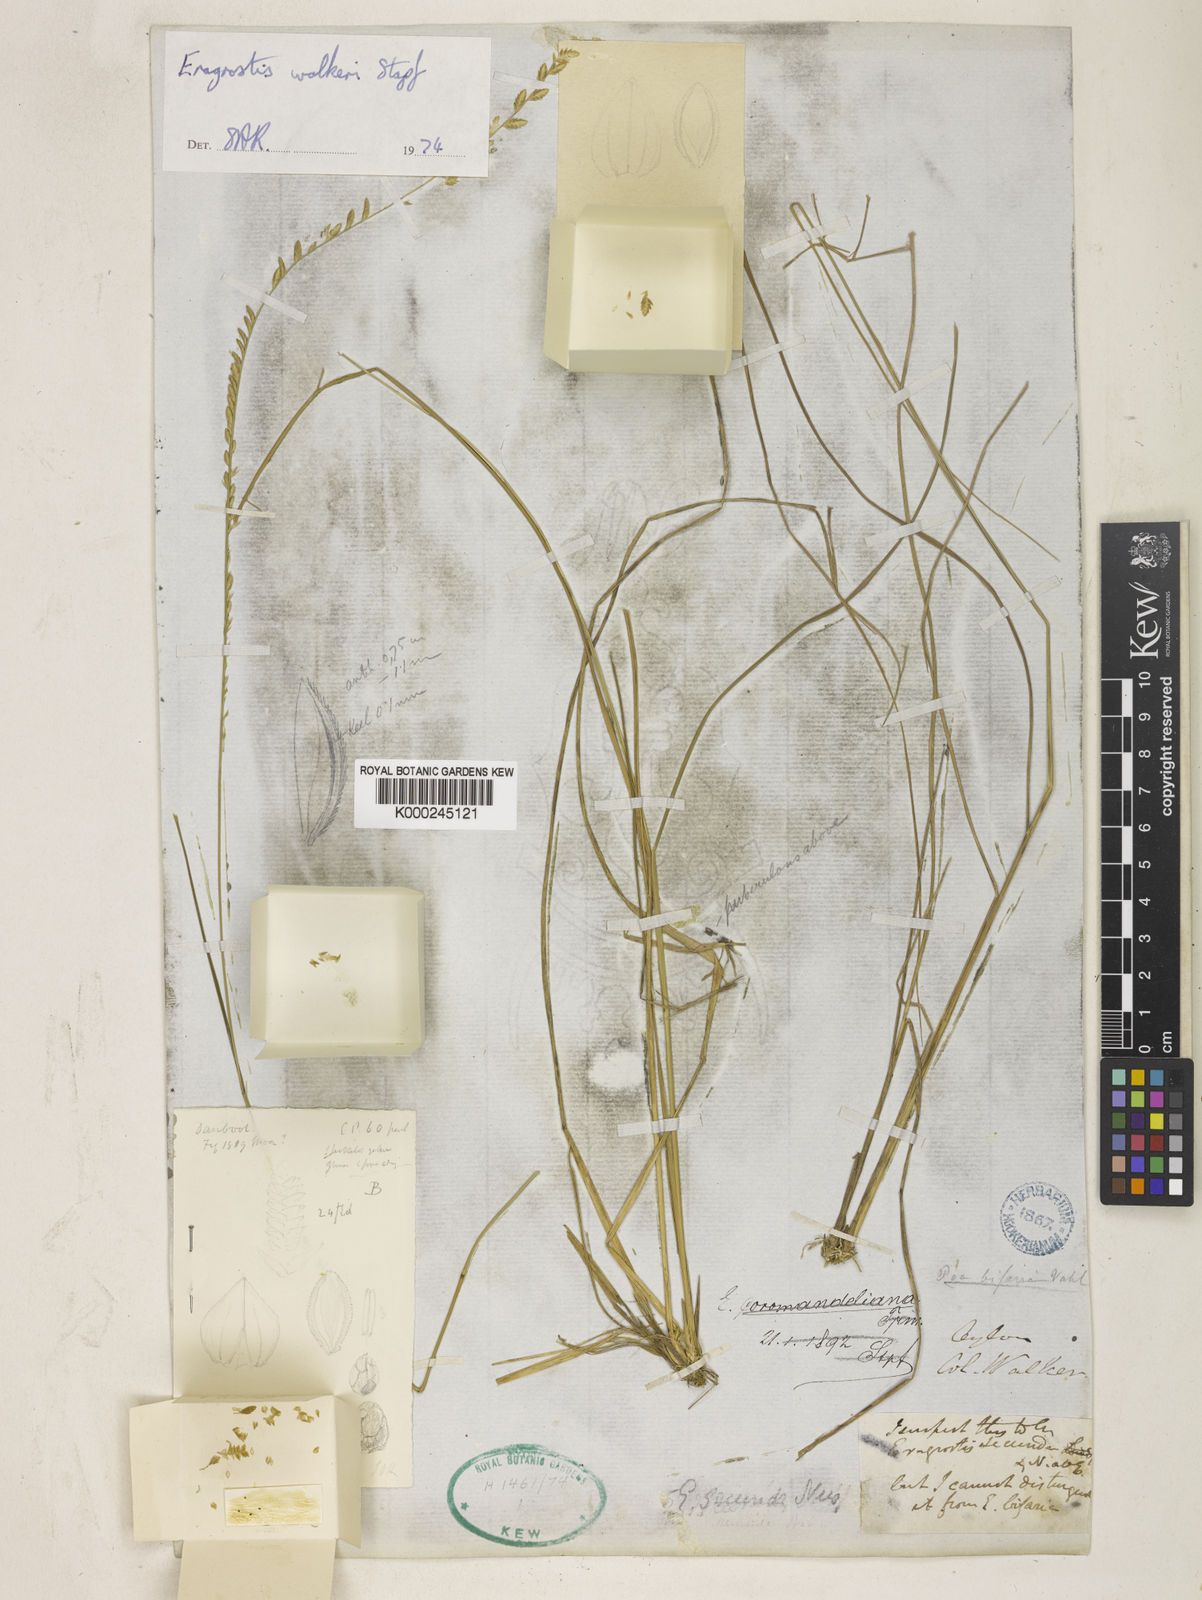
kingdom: Plantae
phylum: Tracheophyta
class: Liliopsida
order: Poales
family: Poaceae
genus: Eragrostiella
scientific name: Eragrostiella bifaria
